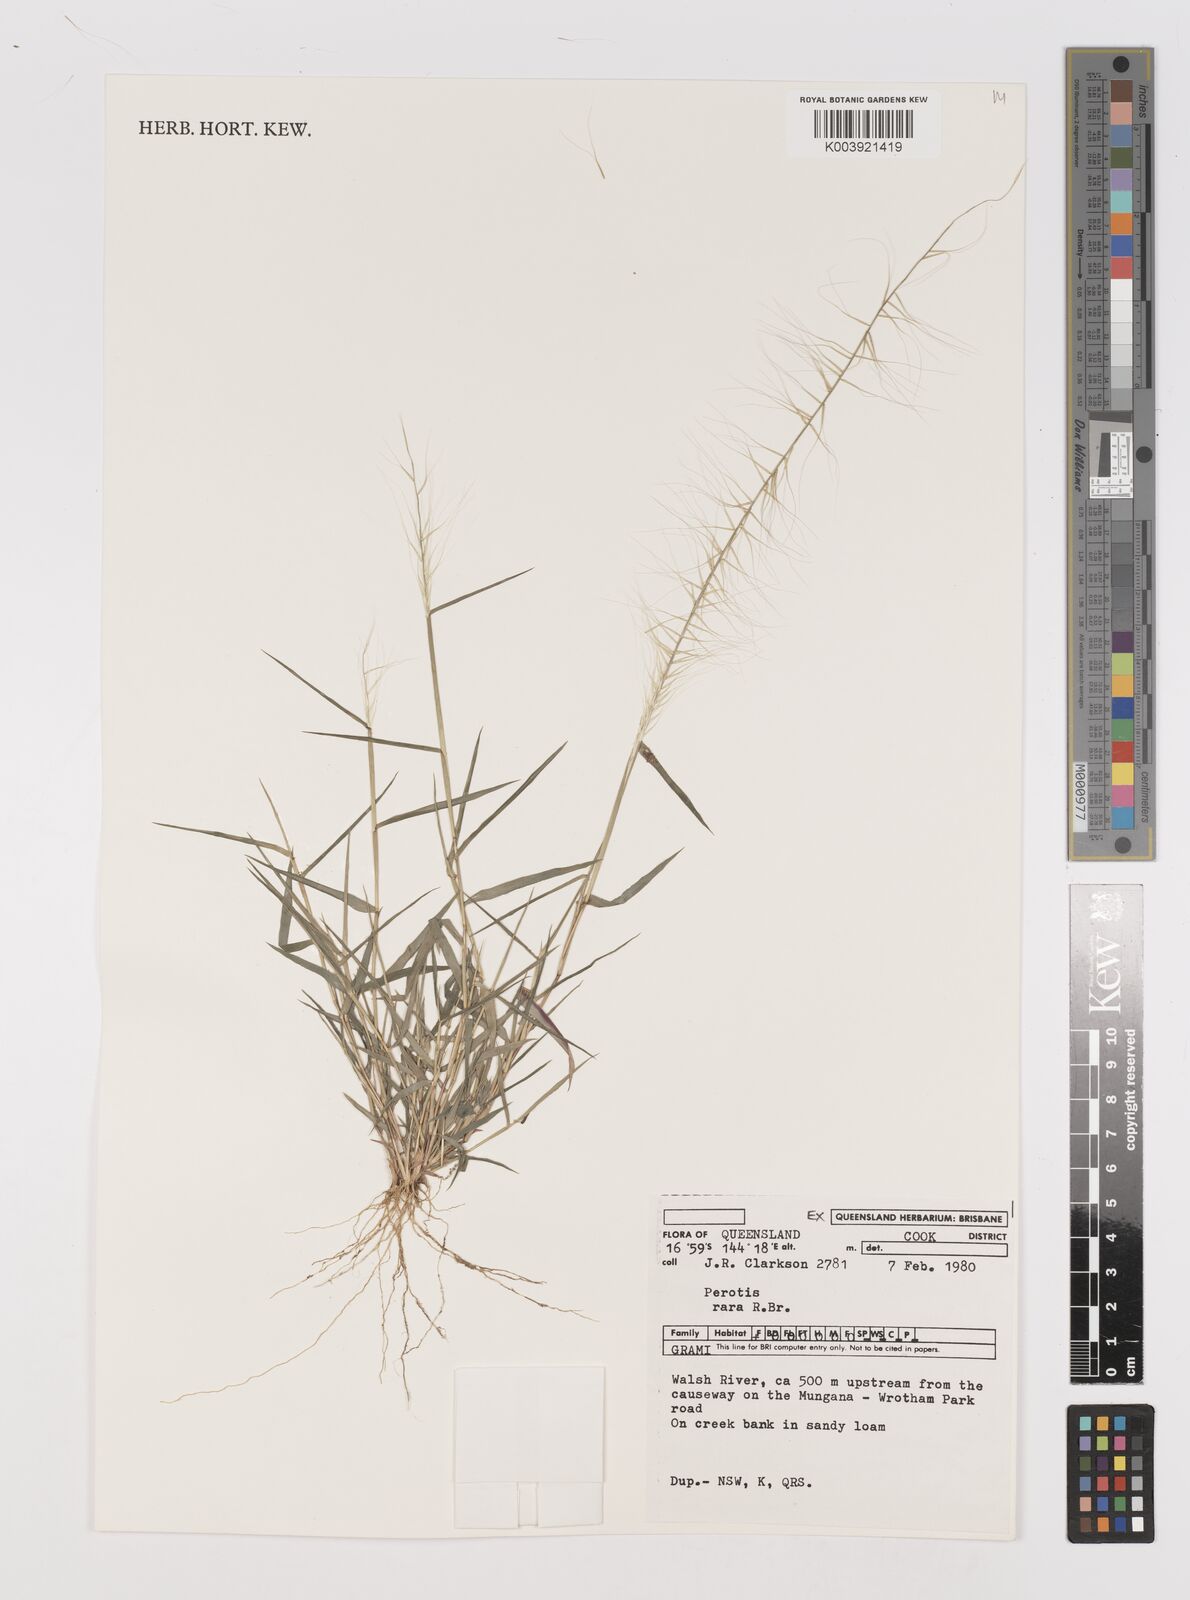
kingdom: Plantae
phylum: Tracheophyta
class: Liliopsida
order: Poales
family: Poaceae
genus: Perotis
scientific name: Perotis rara
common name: Comet grass
